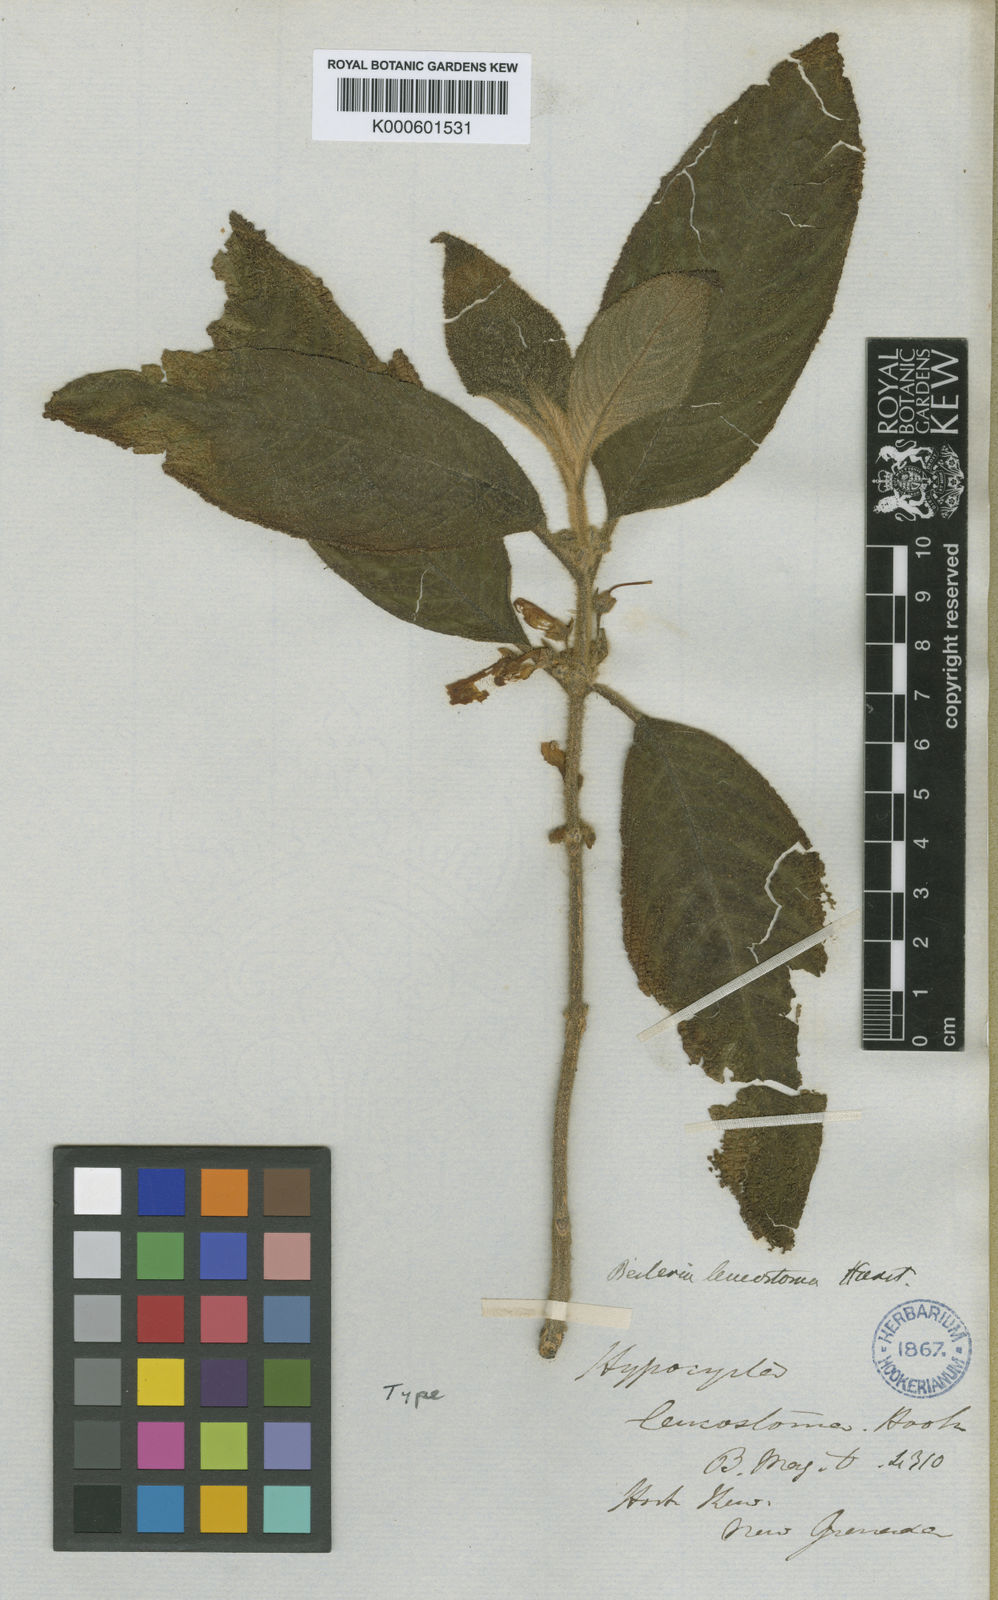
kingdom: Plantae
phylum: Tracheophyta
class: Magnoliopsida
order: Lamiales
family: Gesneriaceae
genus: Besleria
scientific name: Besleria leucostoma
